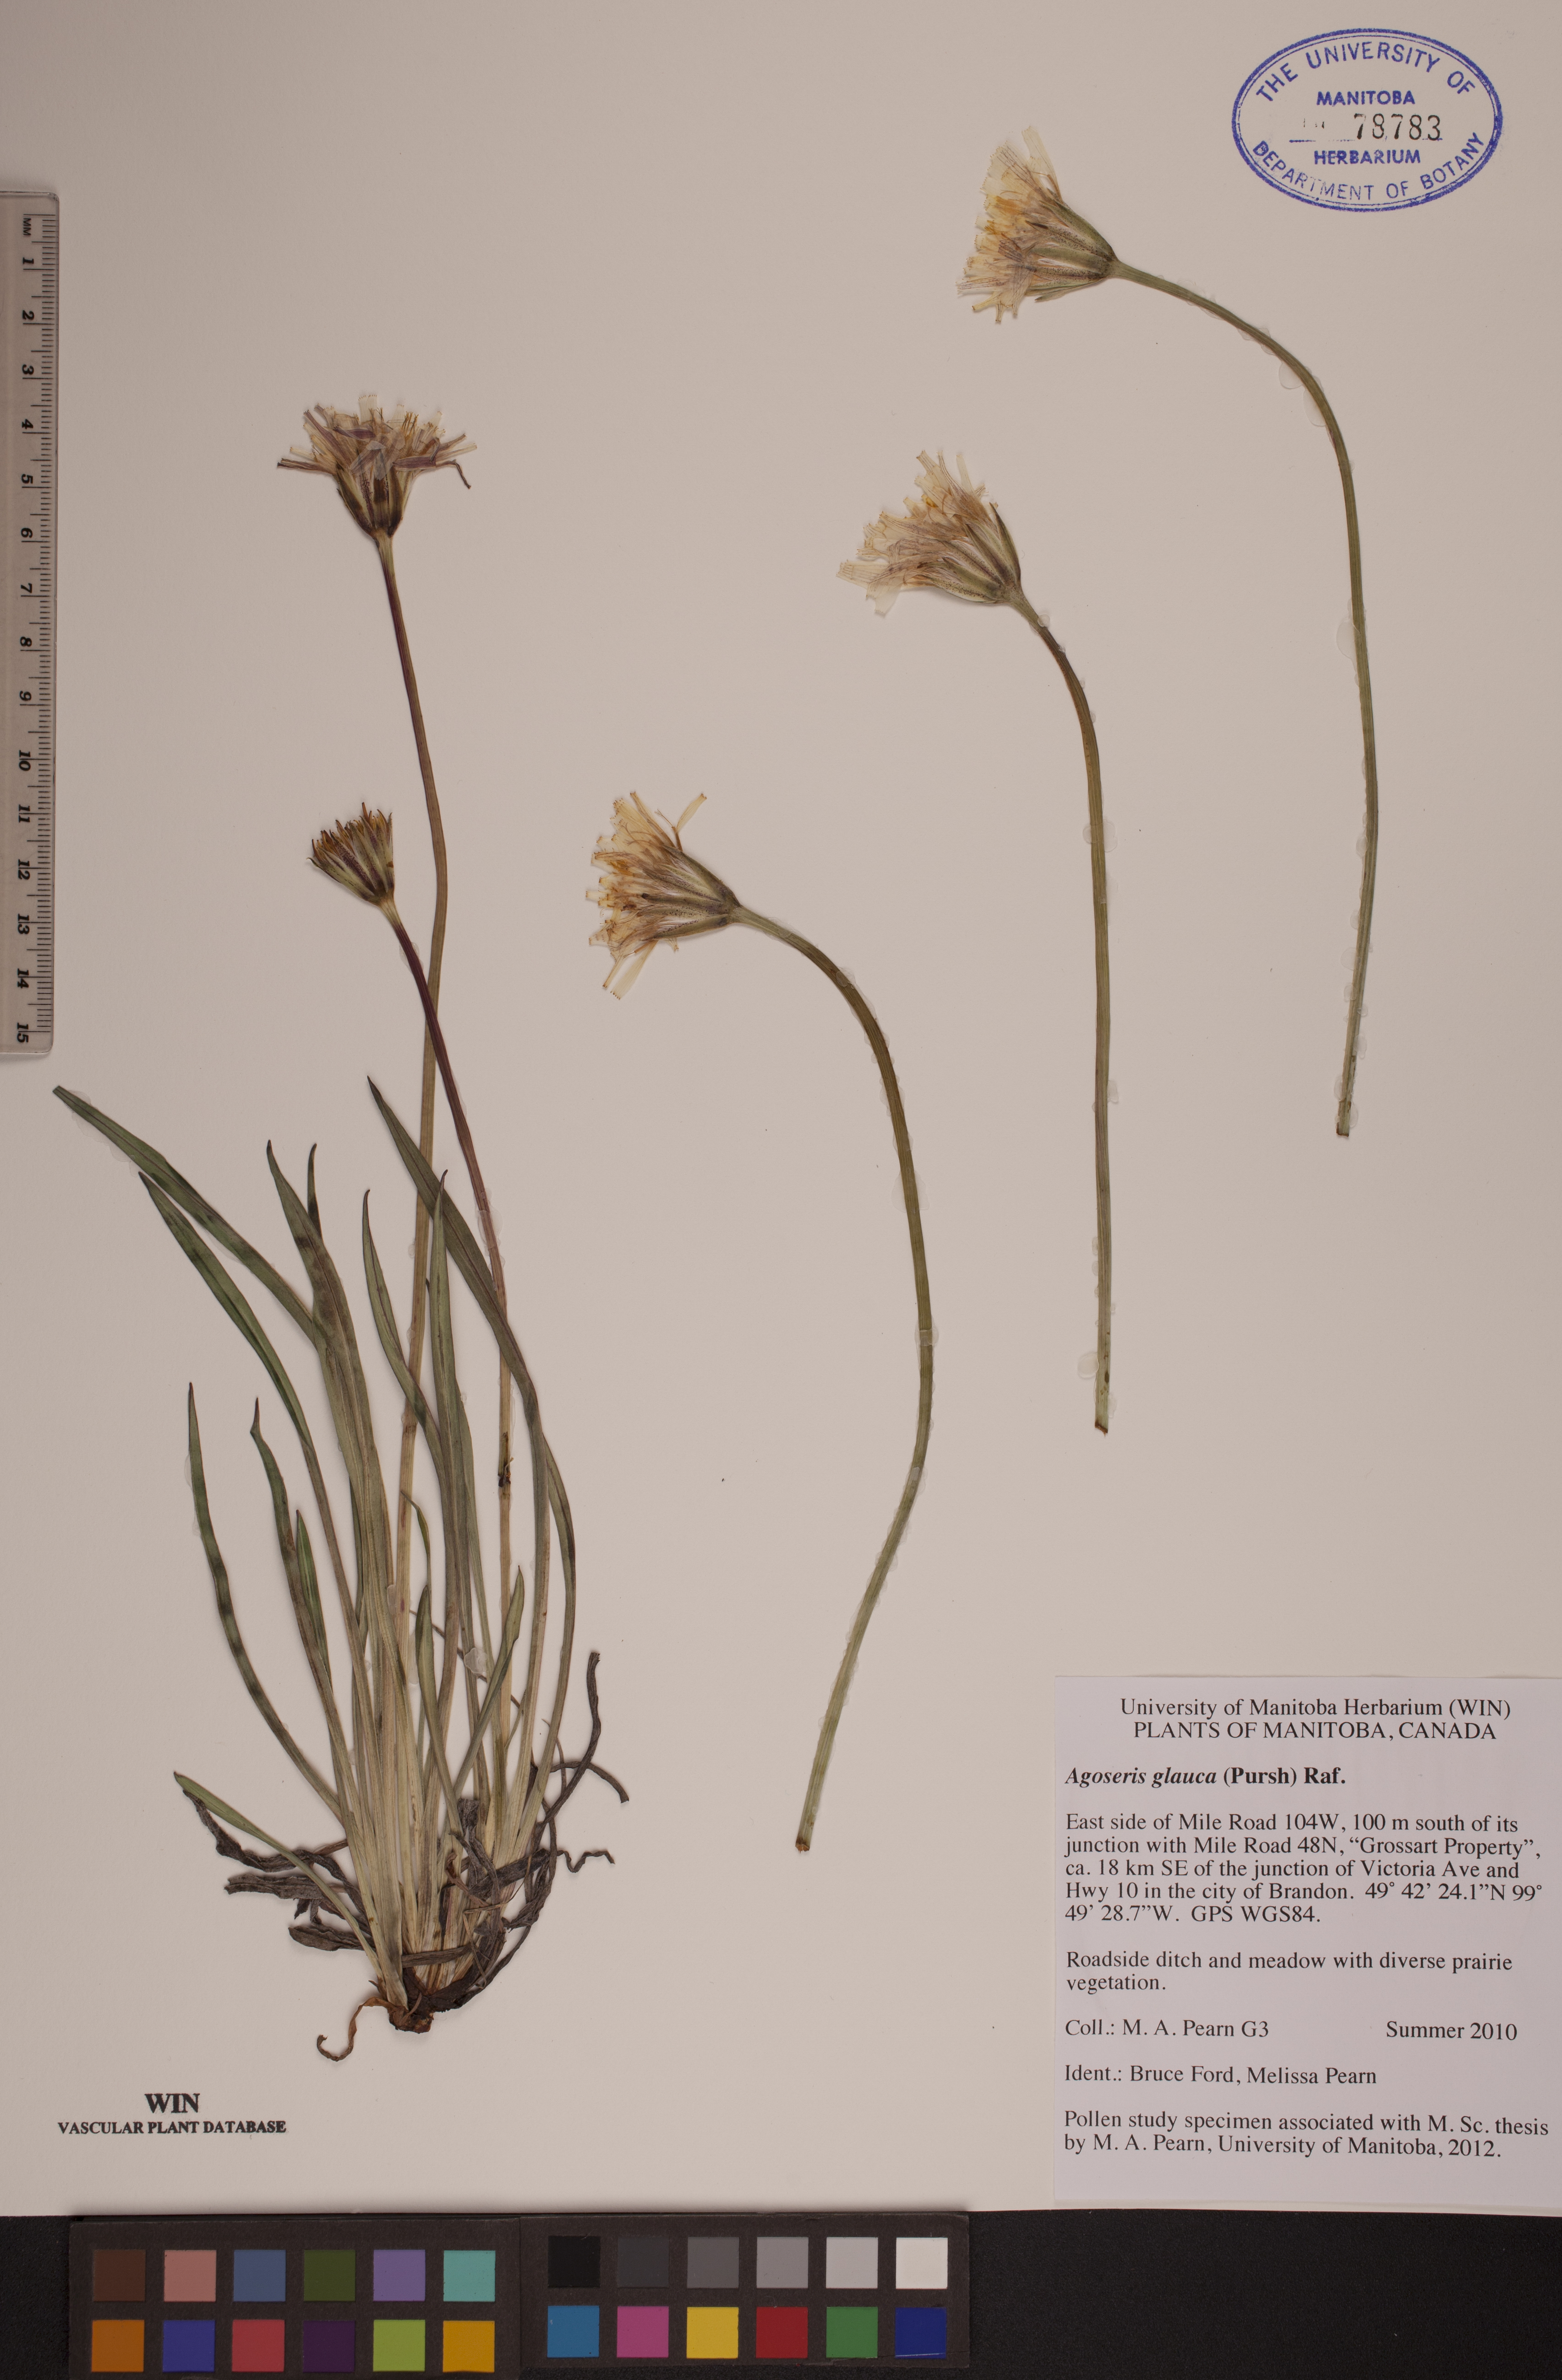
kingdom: Plantae
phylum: Tracheophyta
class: Magnoliopsida
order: Asterales
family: Asteraceae
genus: Agoseris
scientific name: Agoseris glauca
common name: Prairie agoseris
